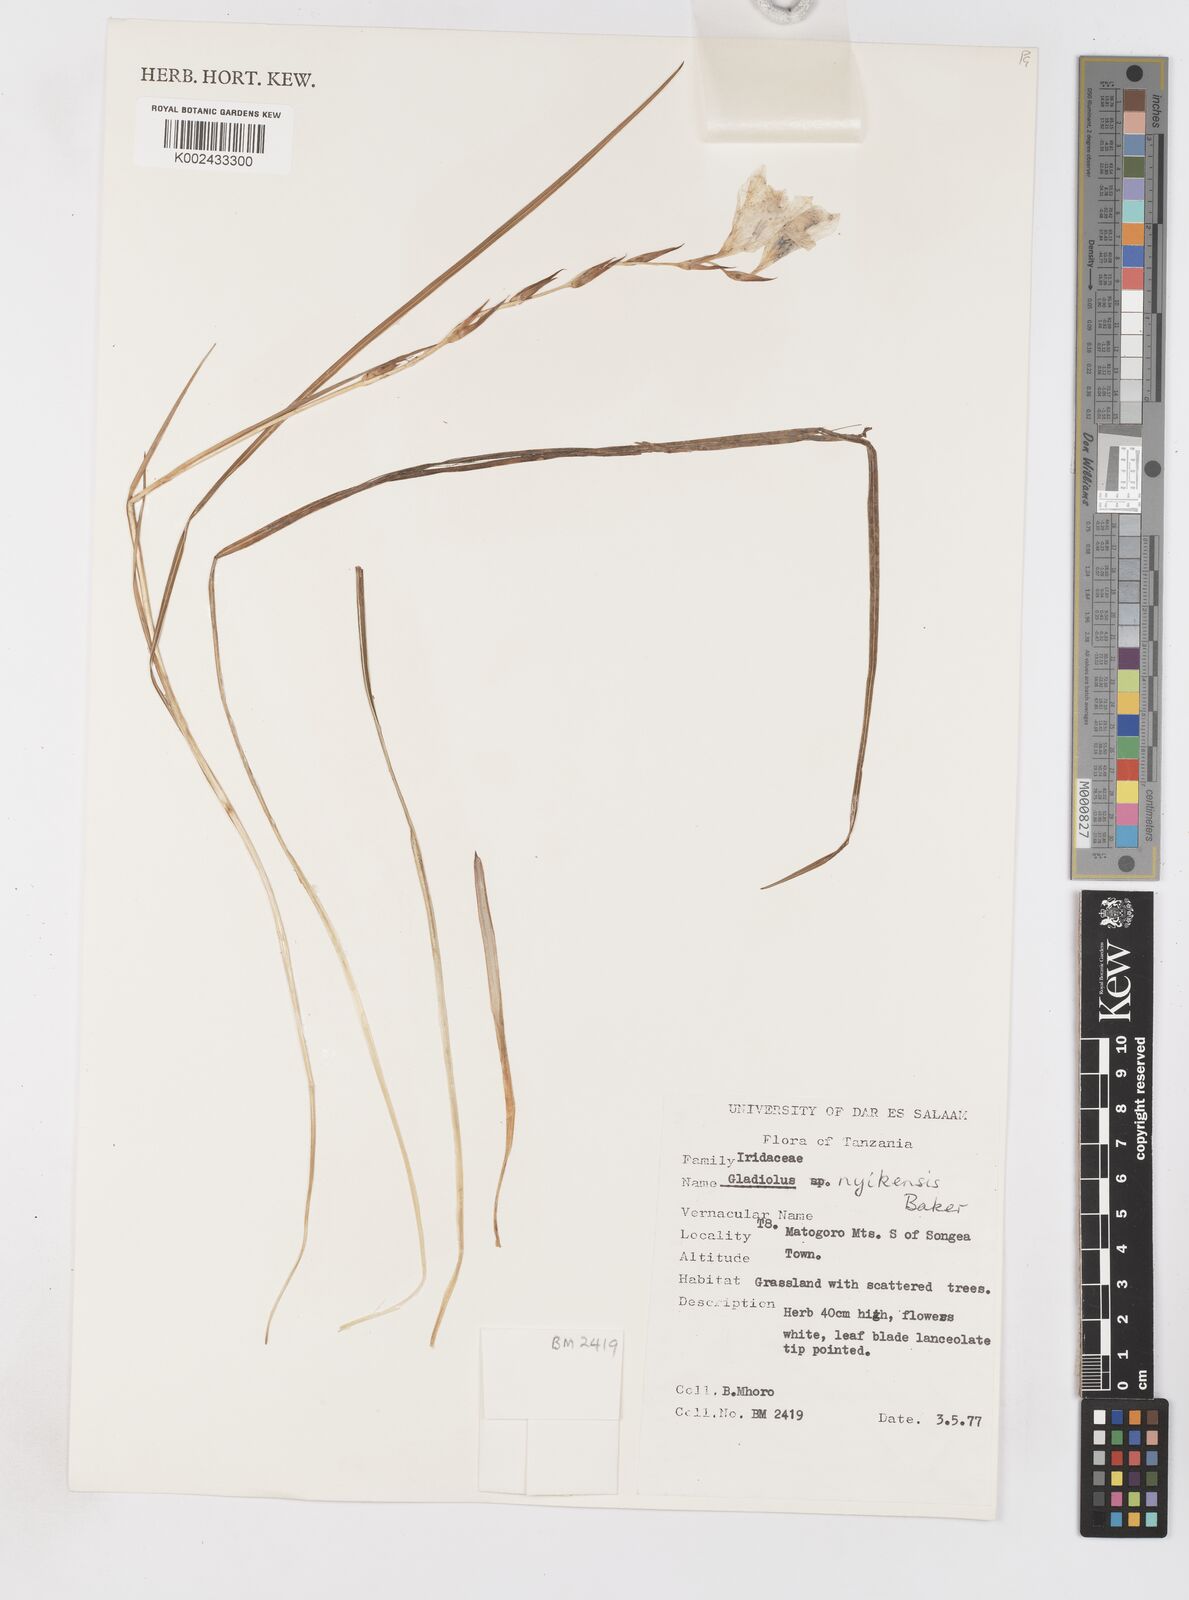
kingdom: Plantae
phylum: Tracheophyta
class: Liliopsida
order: Asparagales
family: Iridaceae
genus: Gladiolus
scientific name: Gladiolus erectiflorus
